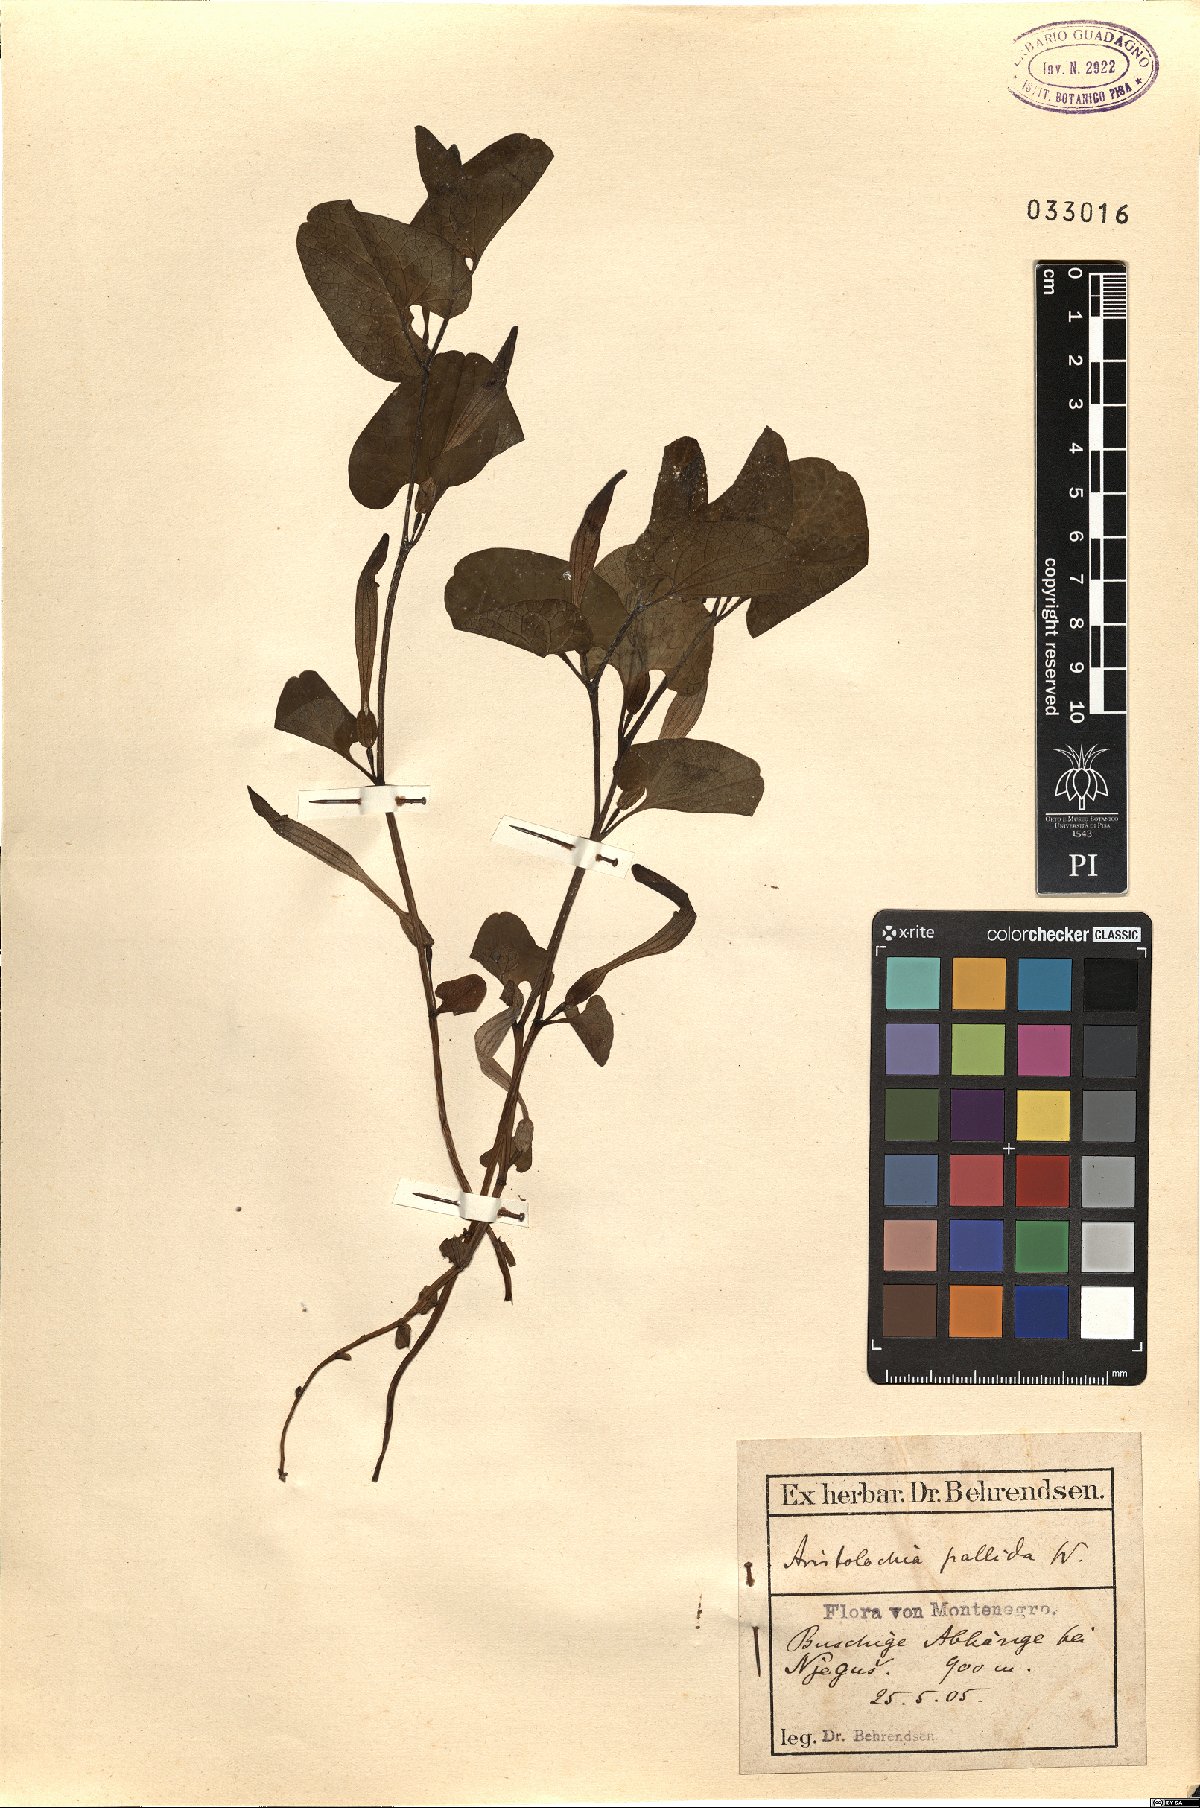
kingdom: Plantae
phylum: Tracheophyta
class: Magnoliopsida
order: Piperales
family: Aristolochiaceae
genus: Aristolochia
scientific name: Aristolochia pallida
